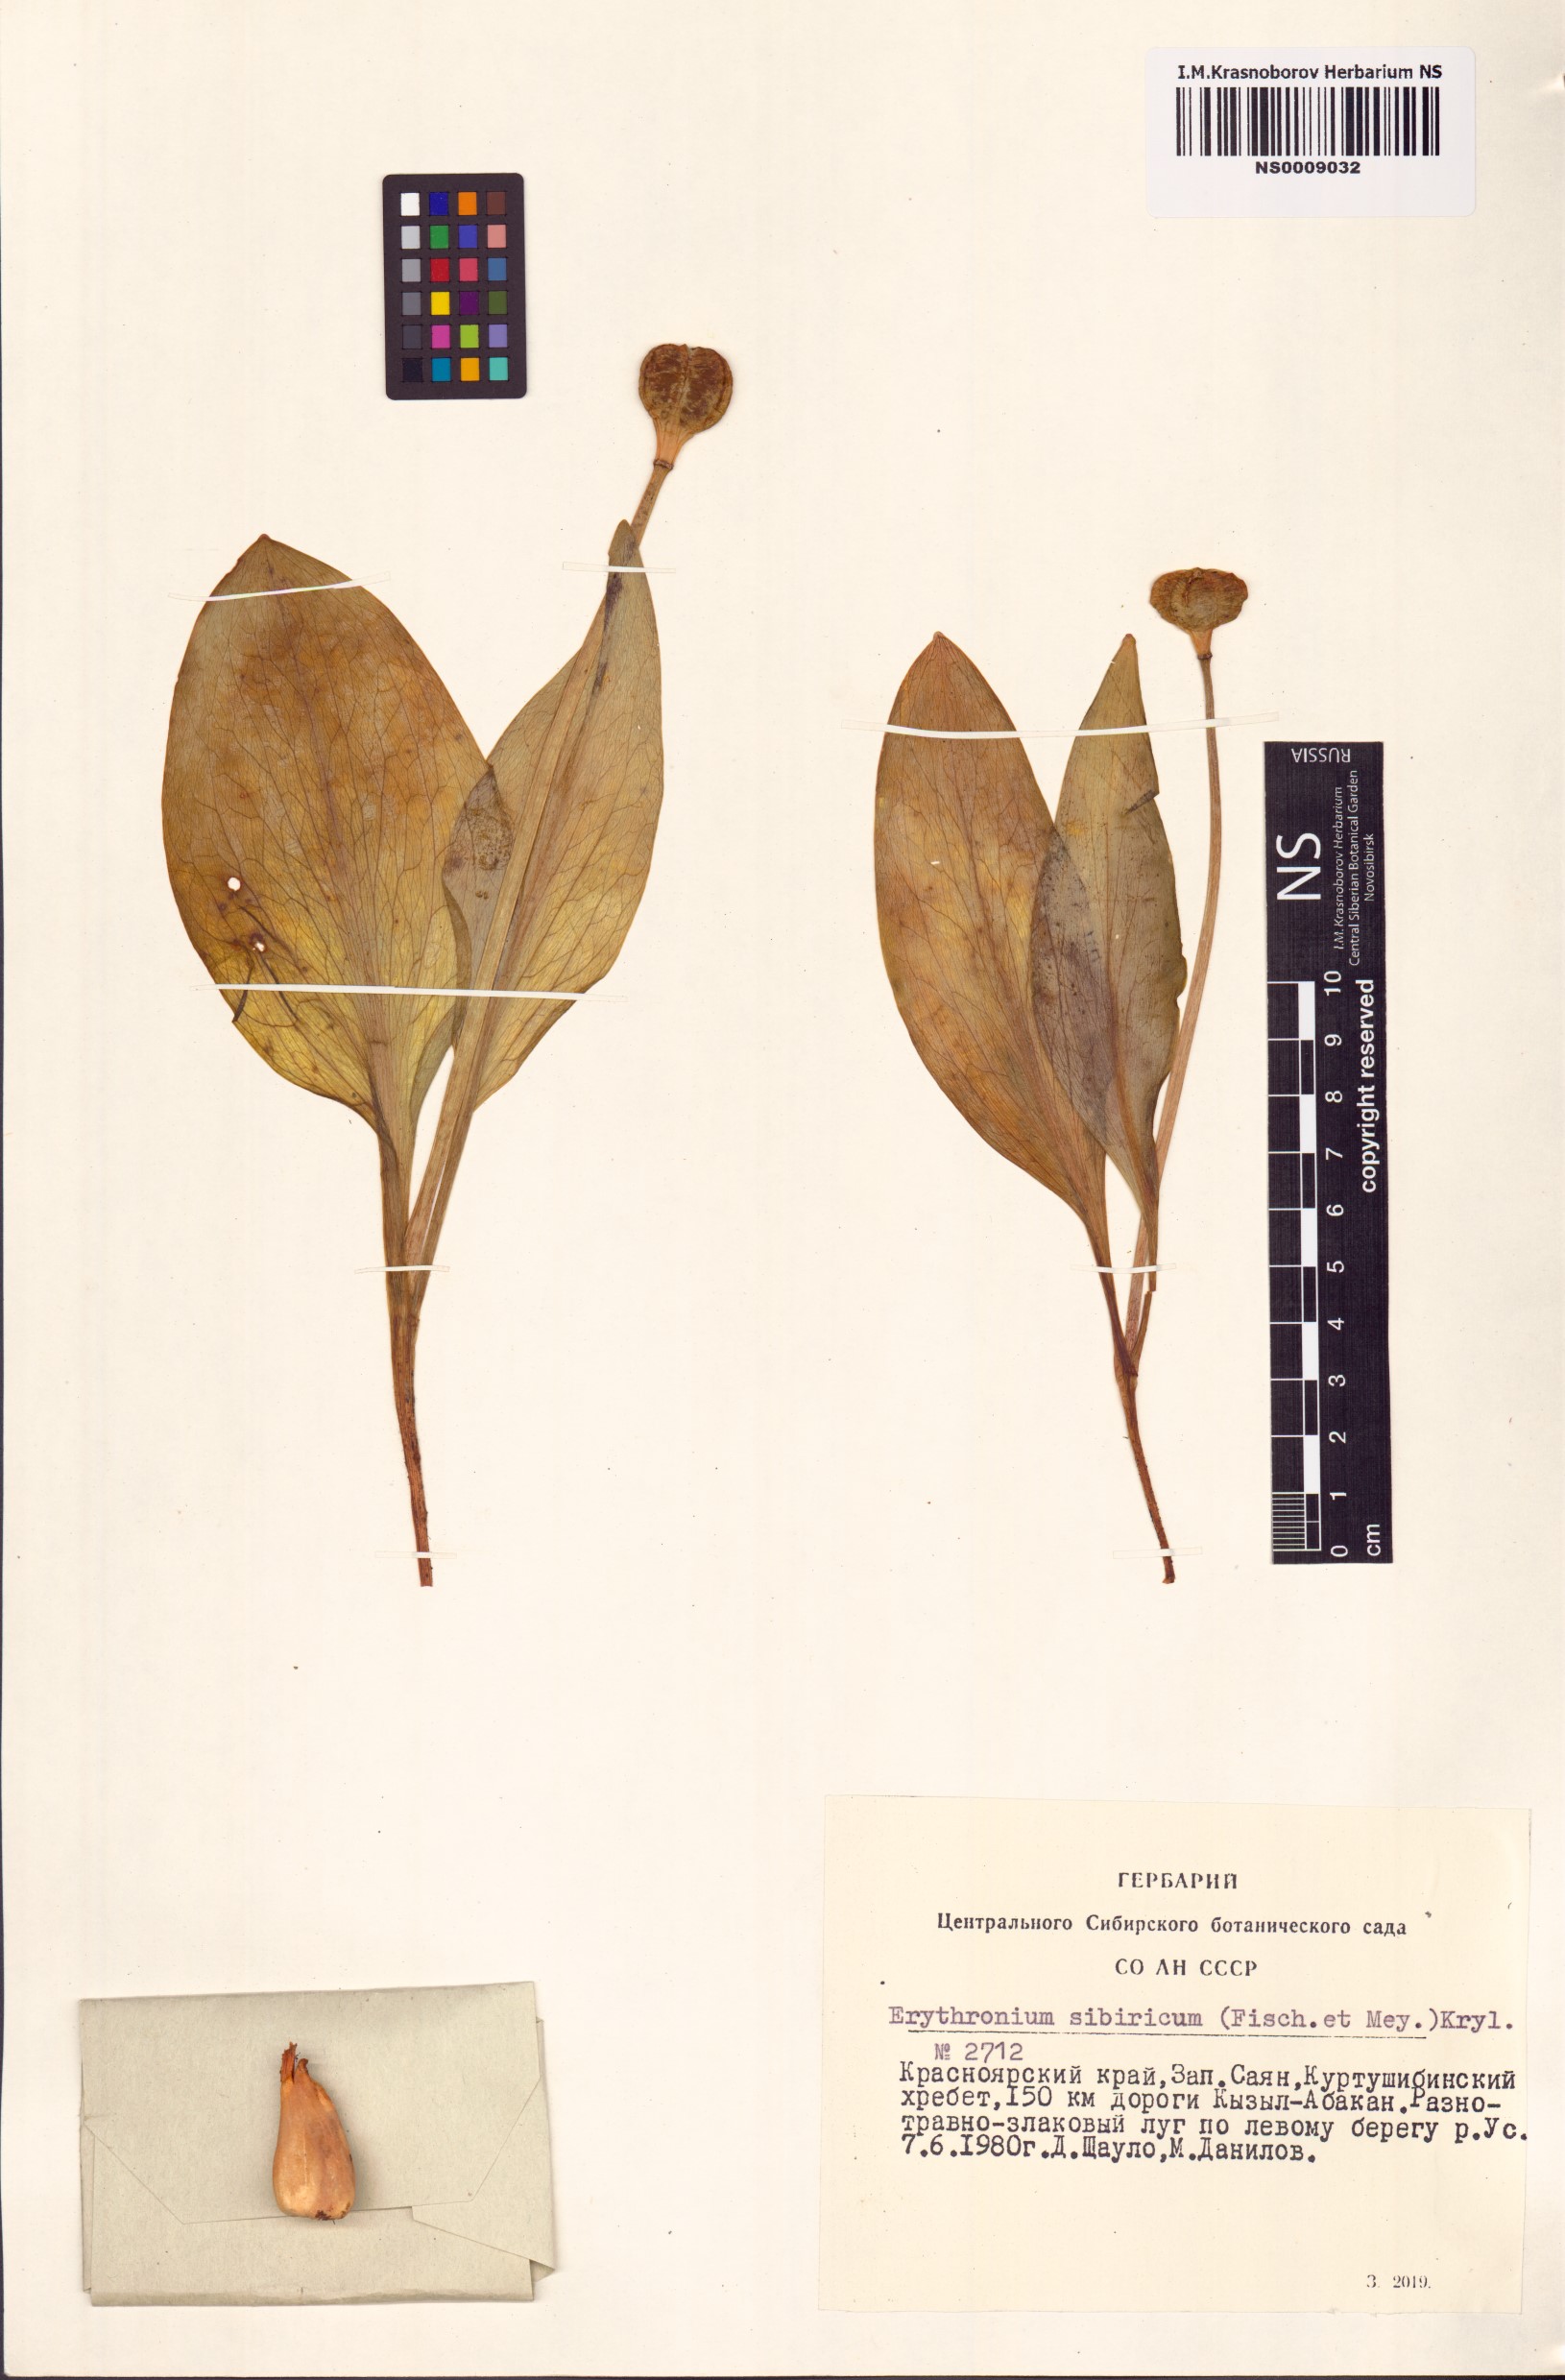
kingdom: Plantae
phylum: Tracheophyta
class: Liliopsida
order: Liliales
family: Liliaceae
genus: Erythronium
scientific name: Erythronium sibiricum
